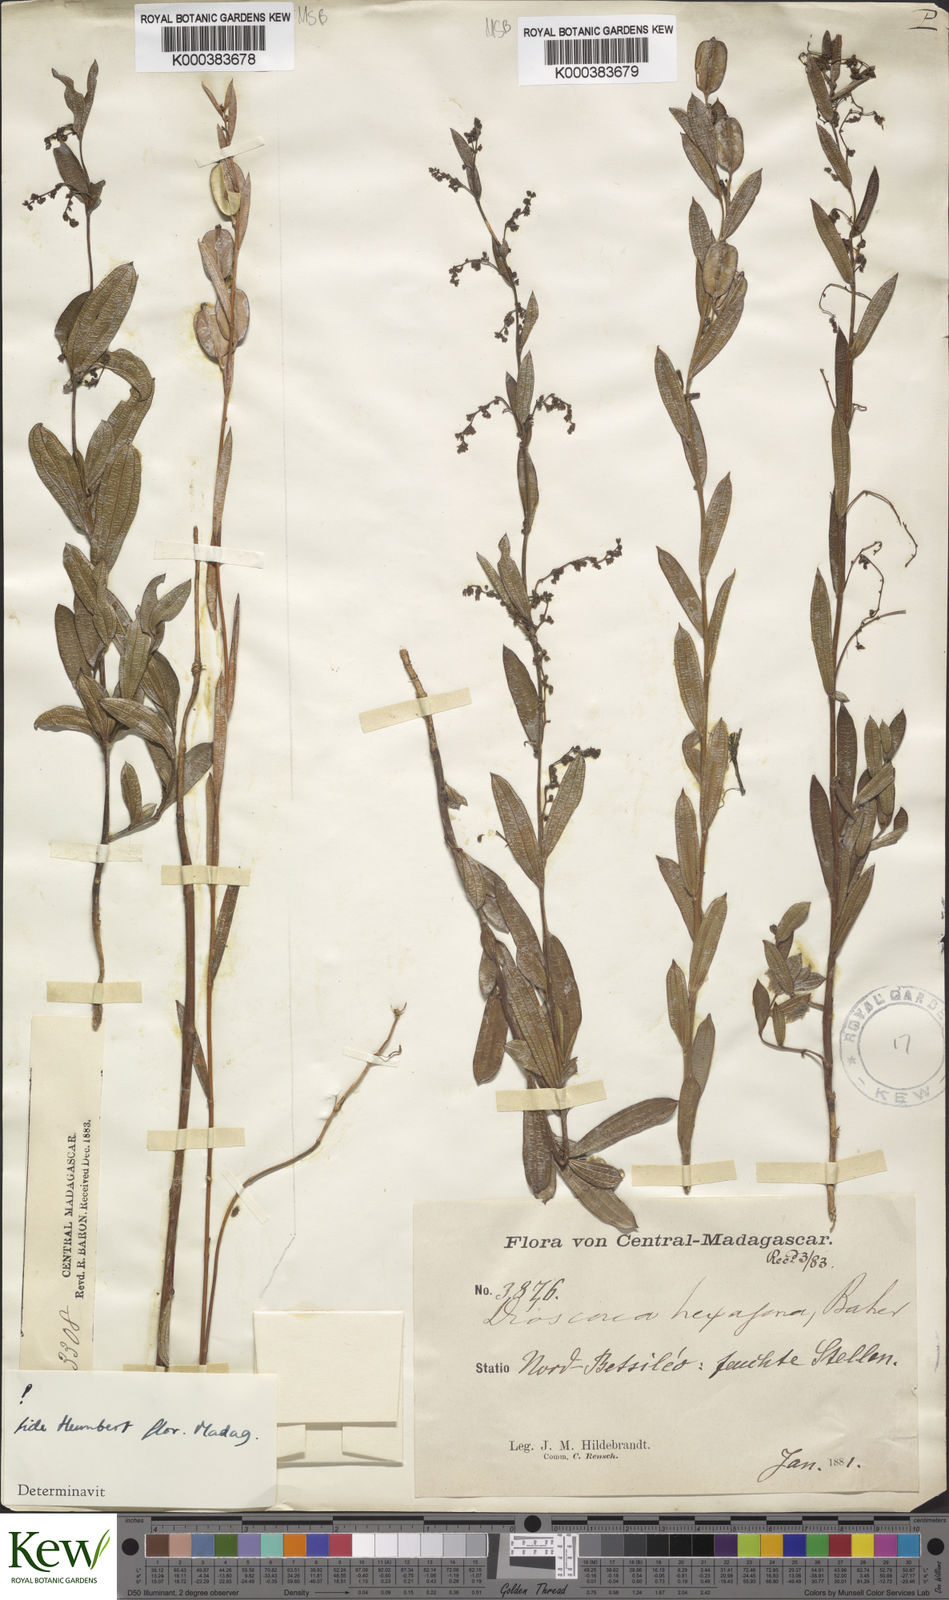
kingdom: Plantae
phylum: Tracheophyta
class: Liliopsida
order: Dioscoreales
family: Dioscoreaceae
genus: Dioscorea
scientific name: Dioscorea hexagona
